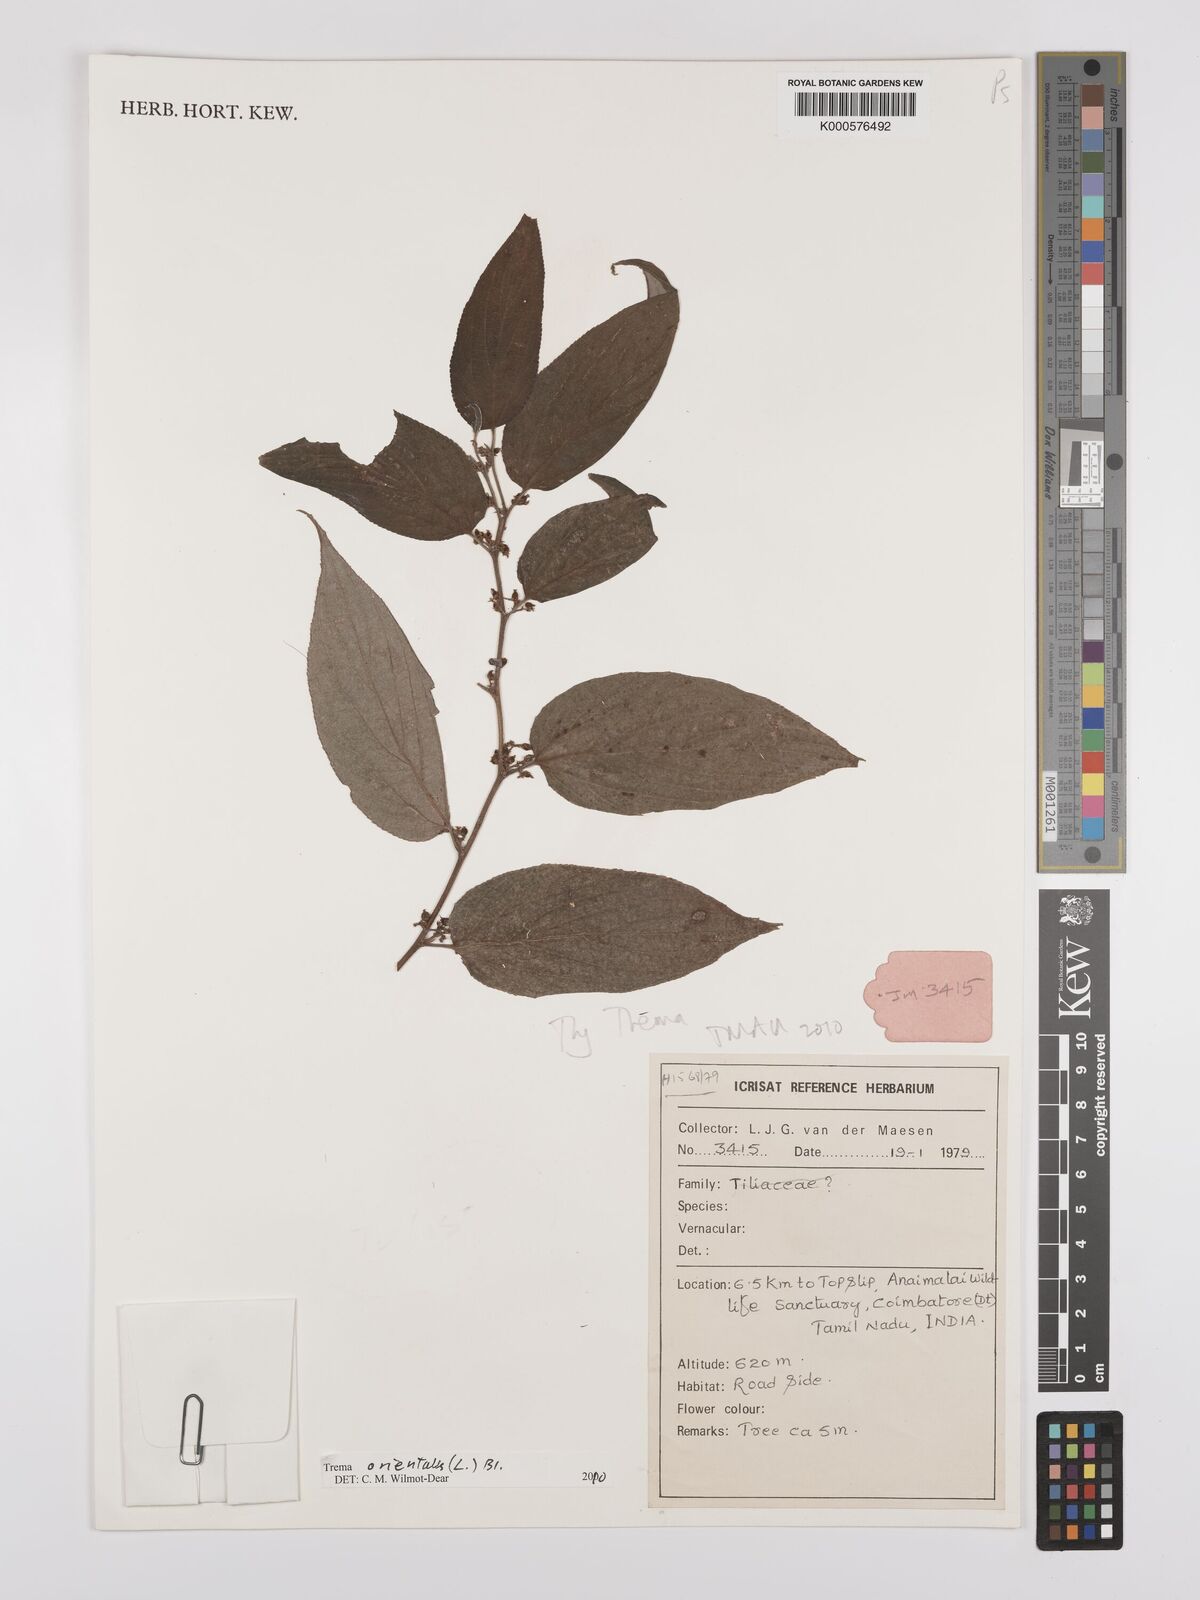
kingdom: Plantae
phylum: Tracheophyta
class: Magnoliopsida
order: Rosales
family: Cannabaceae
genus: Trema
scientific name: Trema
